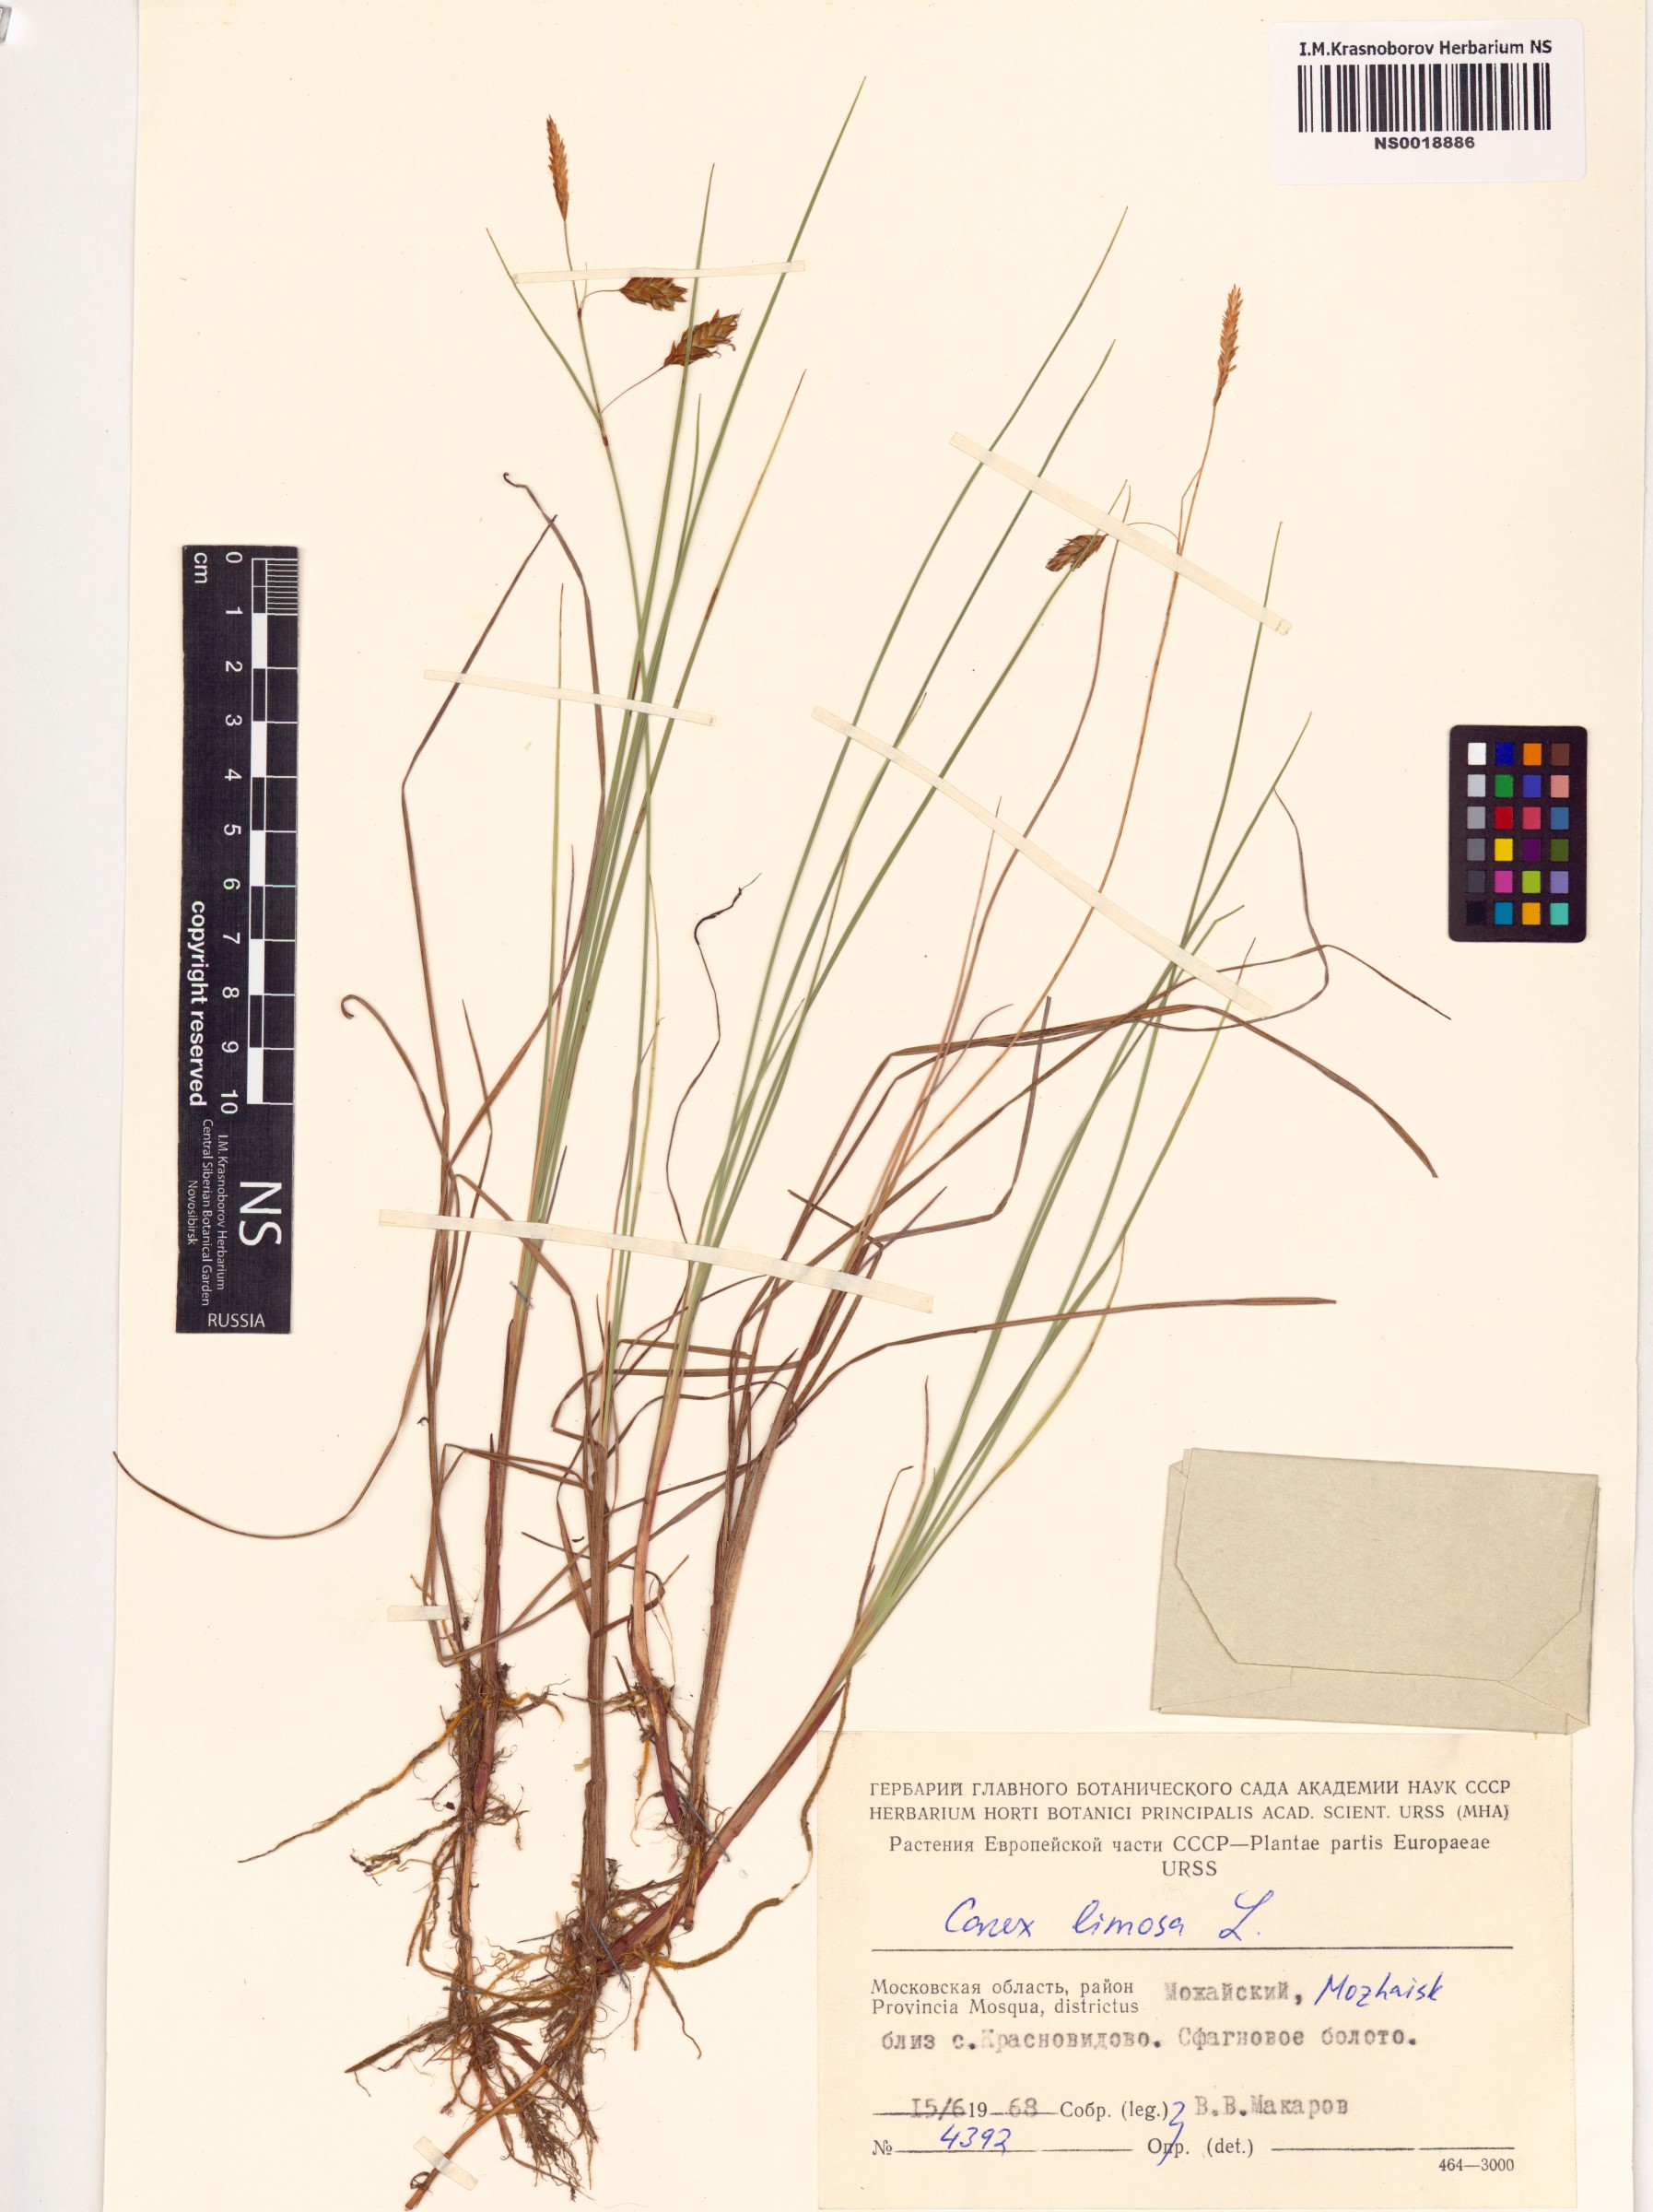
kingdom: Plantae
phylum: Tracheophyta
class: Liliopsida
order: Poales
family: Cyperaceae
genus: Carex
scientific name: Carex limosa
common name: Bog sedge
